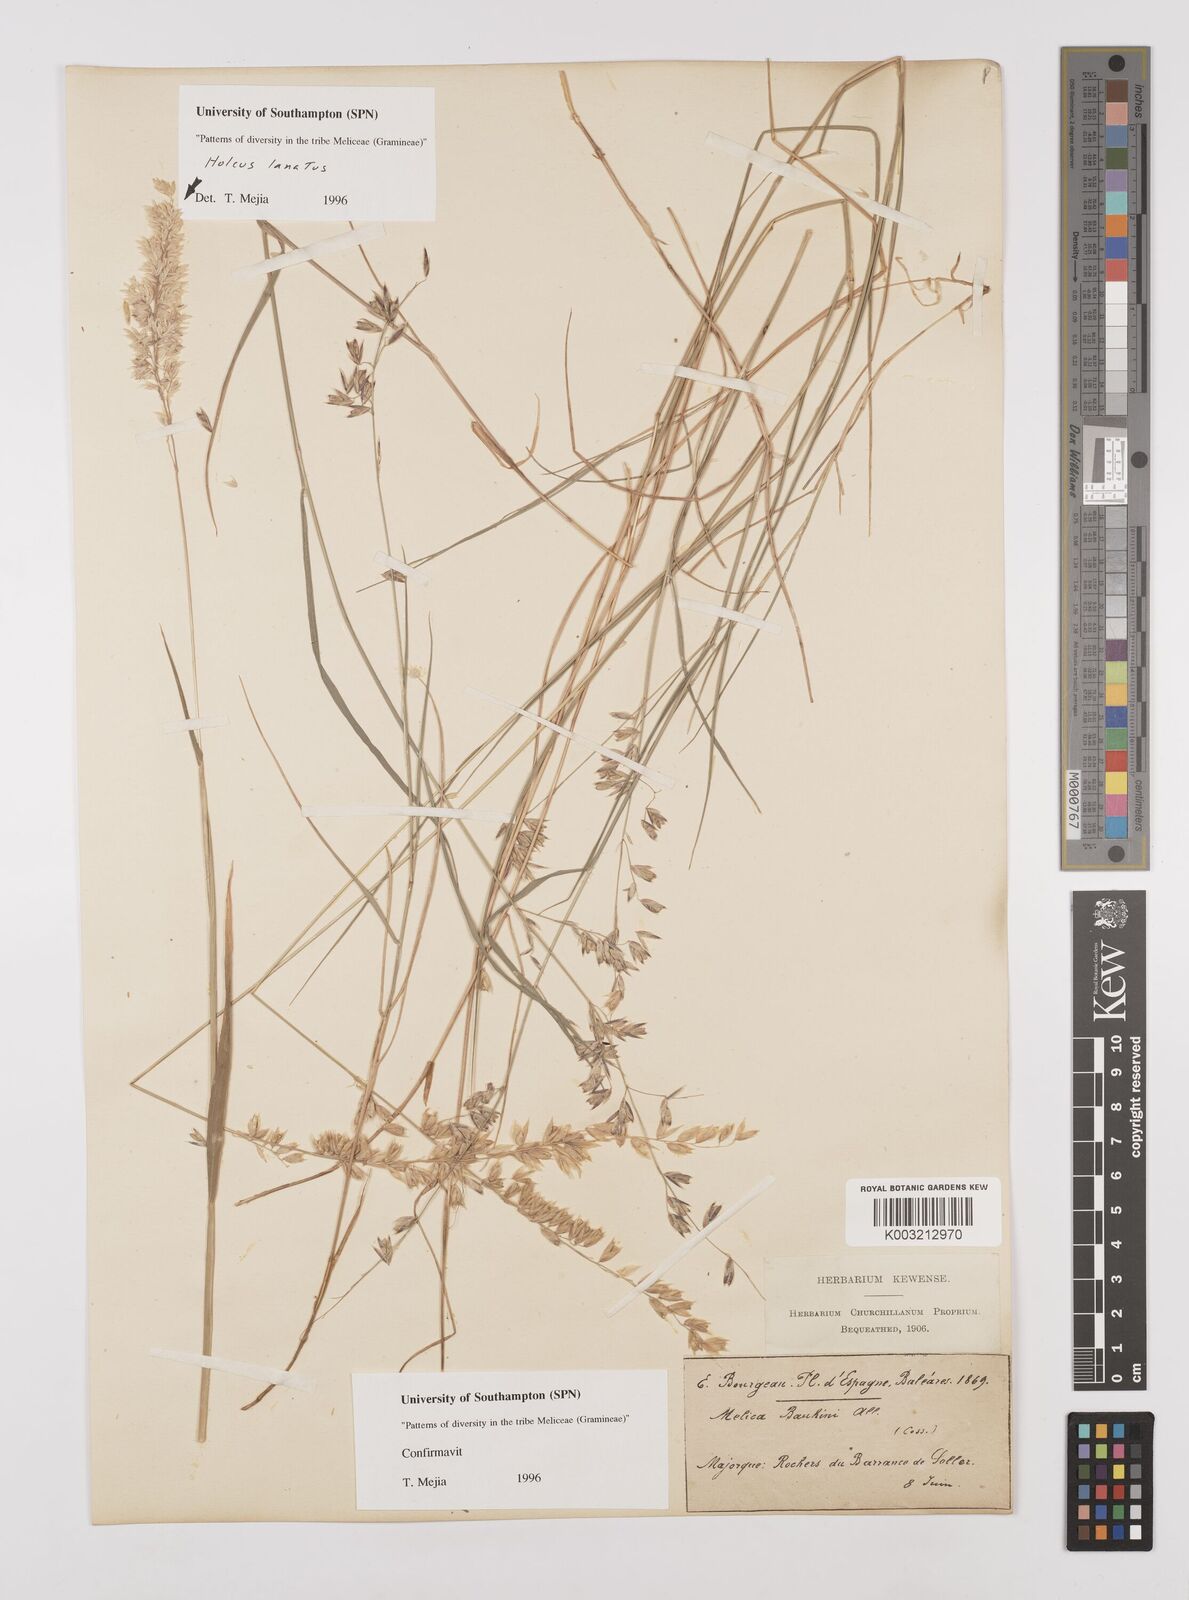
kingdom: Plantae
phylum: Tracheophyta
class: Liliopsida
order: Poales
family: Poaceae
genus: Melica
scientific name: Melica amethystina
